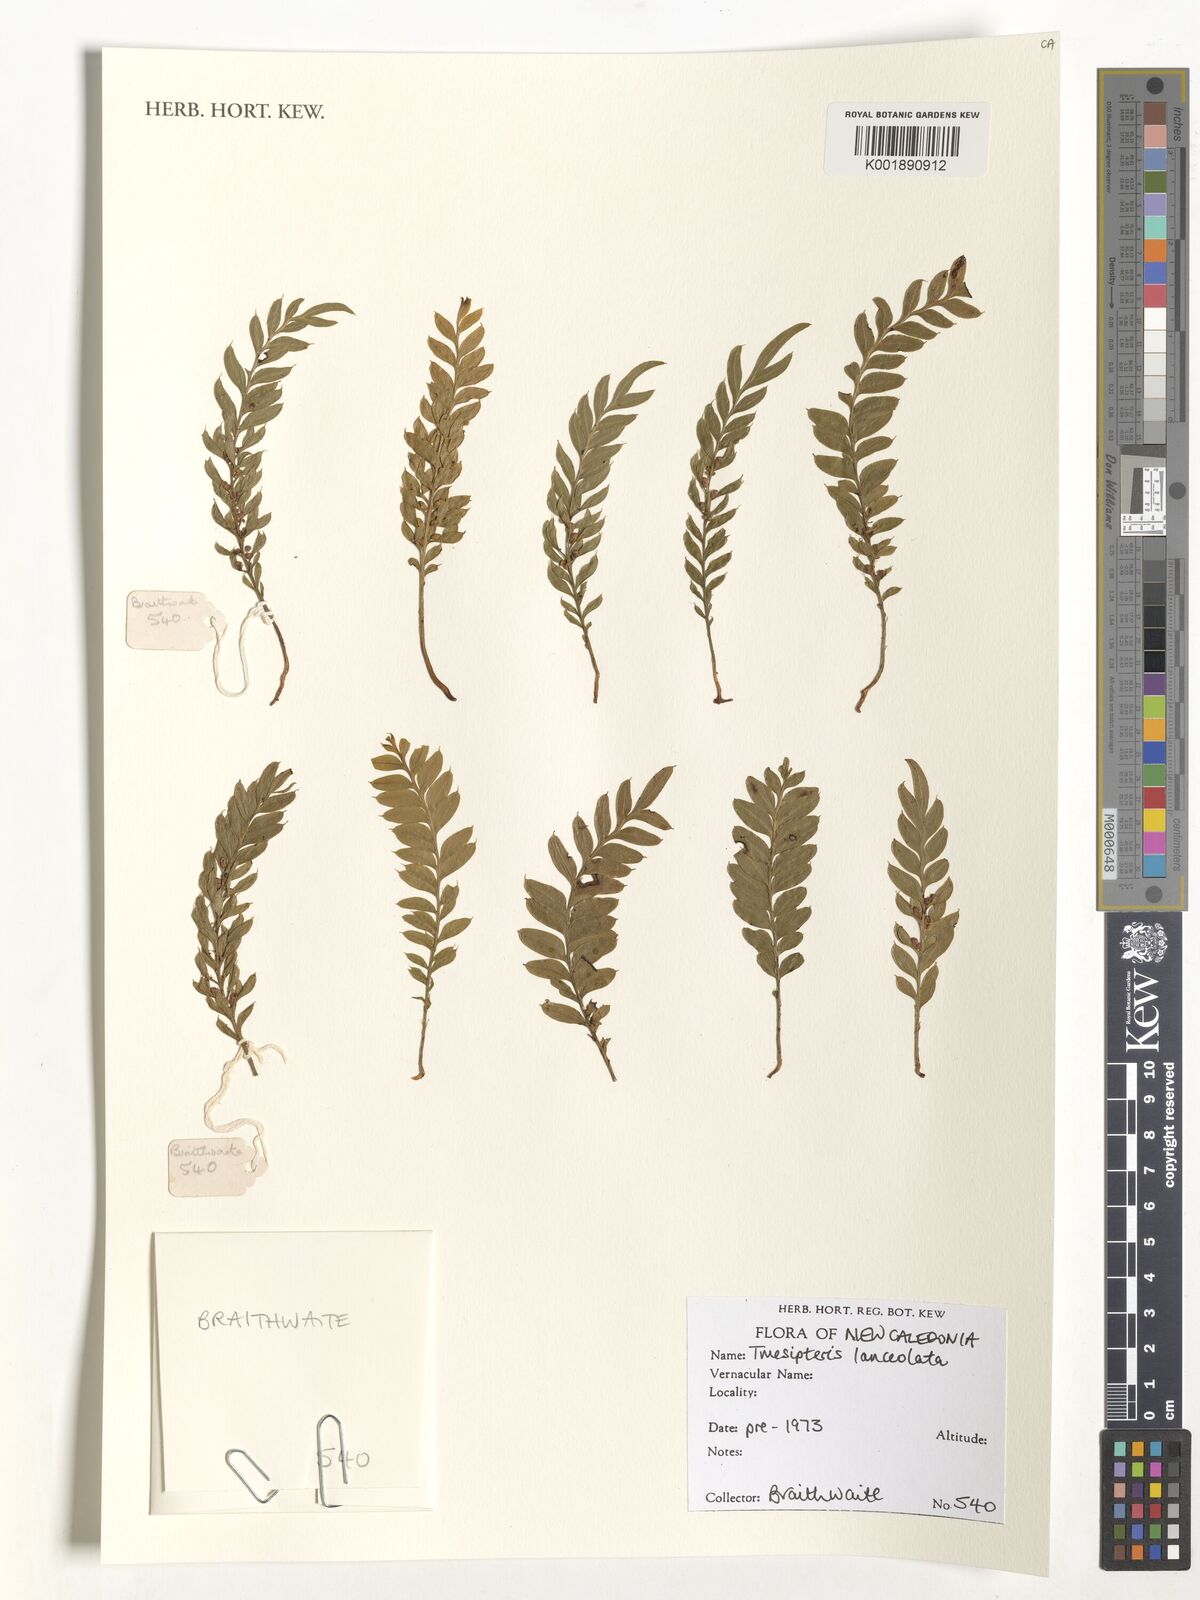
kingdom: Plantae
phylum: Tracheophyta
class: Polypodiopsida
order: Psilotales
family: Psilotaceae
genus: Tmesipteris
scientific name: Tmesipteris lanceolata
